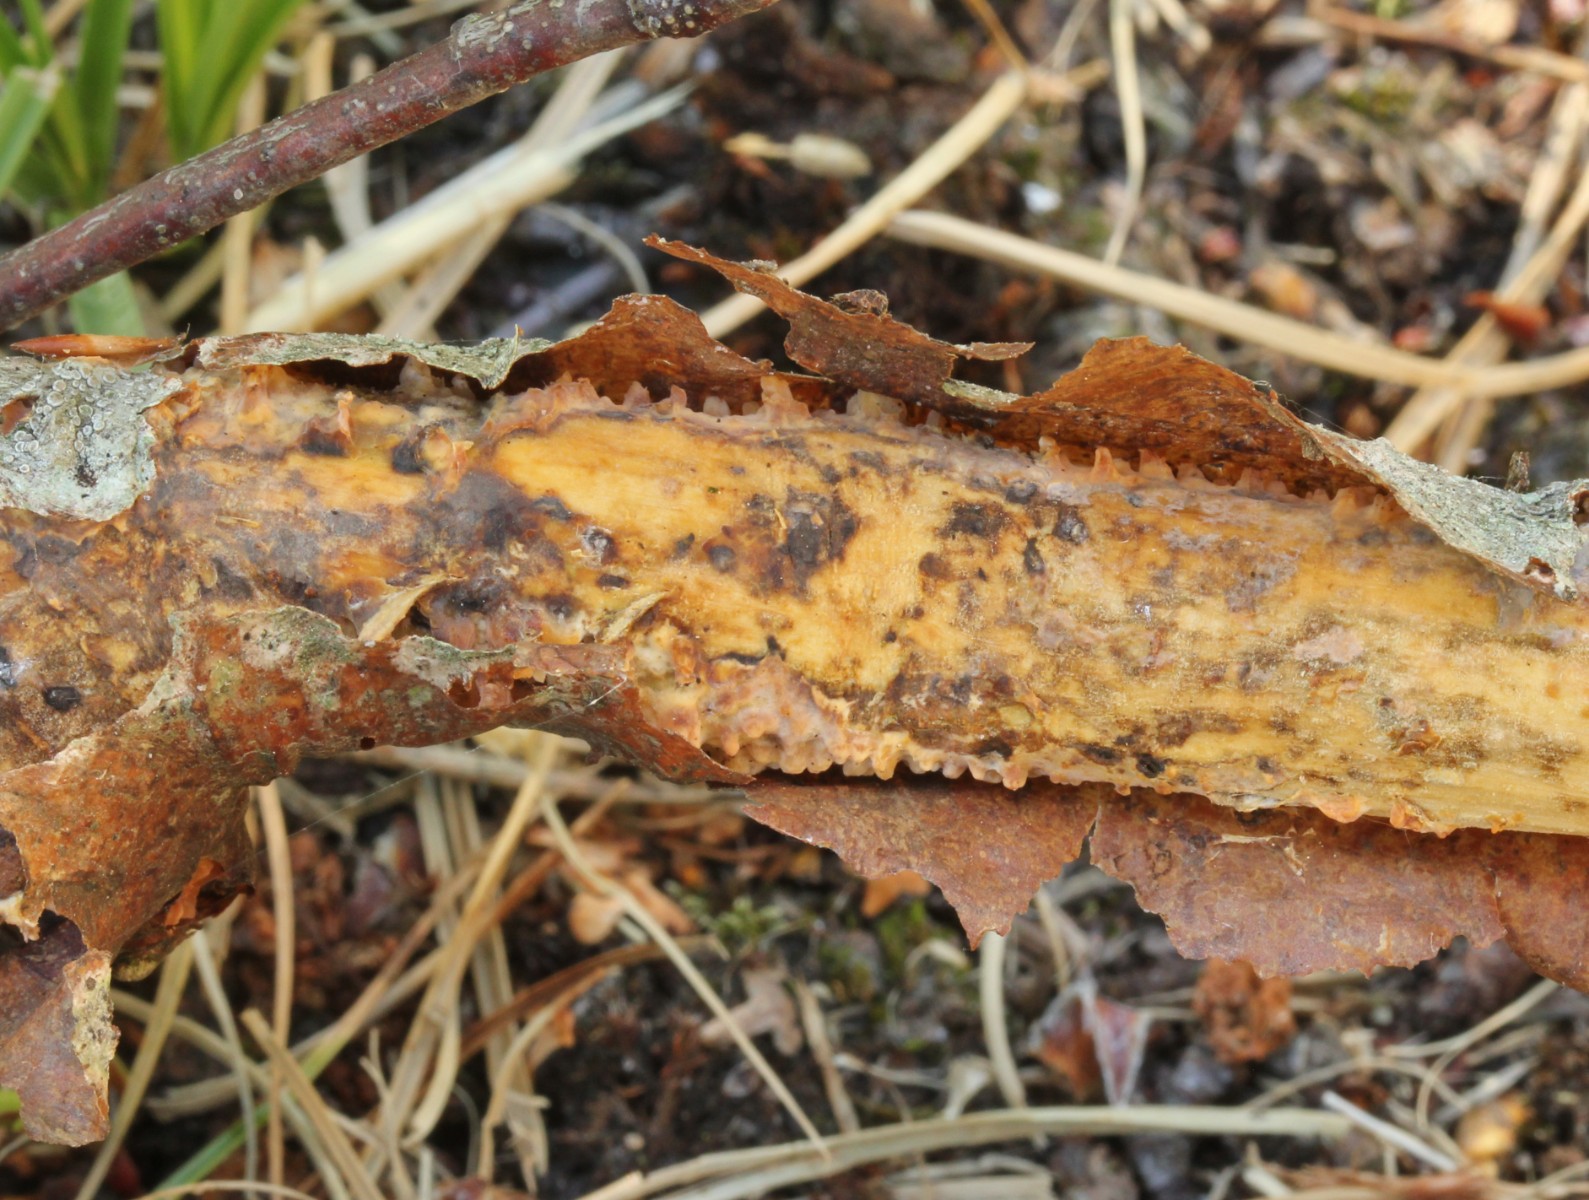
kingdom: Fungi
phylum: Basidiomycota
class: Agaricomycetes
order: Russulales
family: Peniophoraceae
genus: Peniophora
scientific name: Peniophora laeta
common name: tandet voksskind
